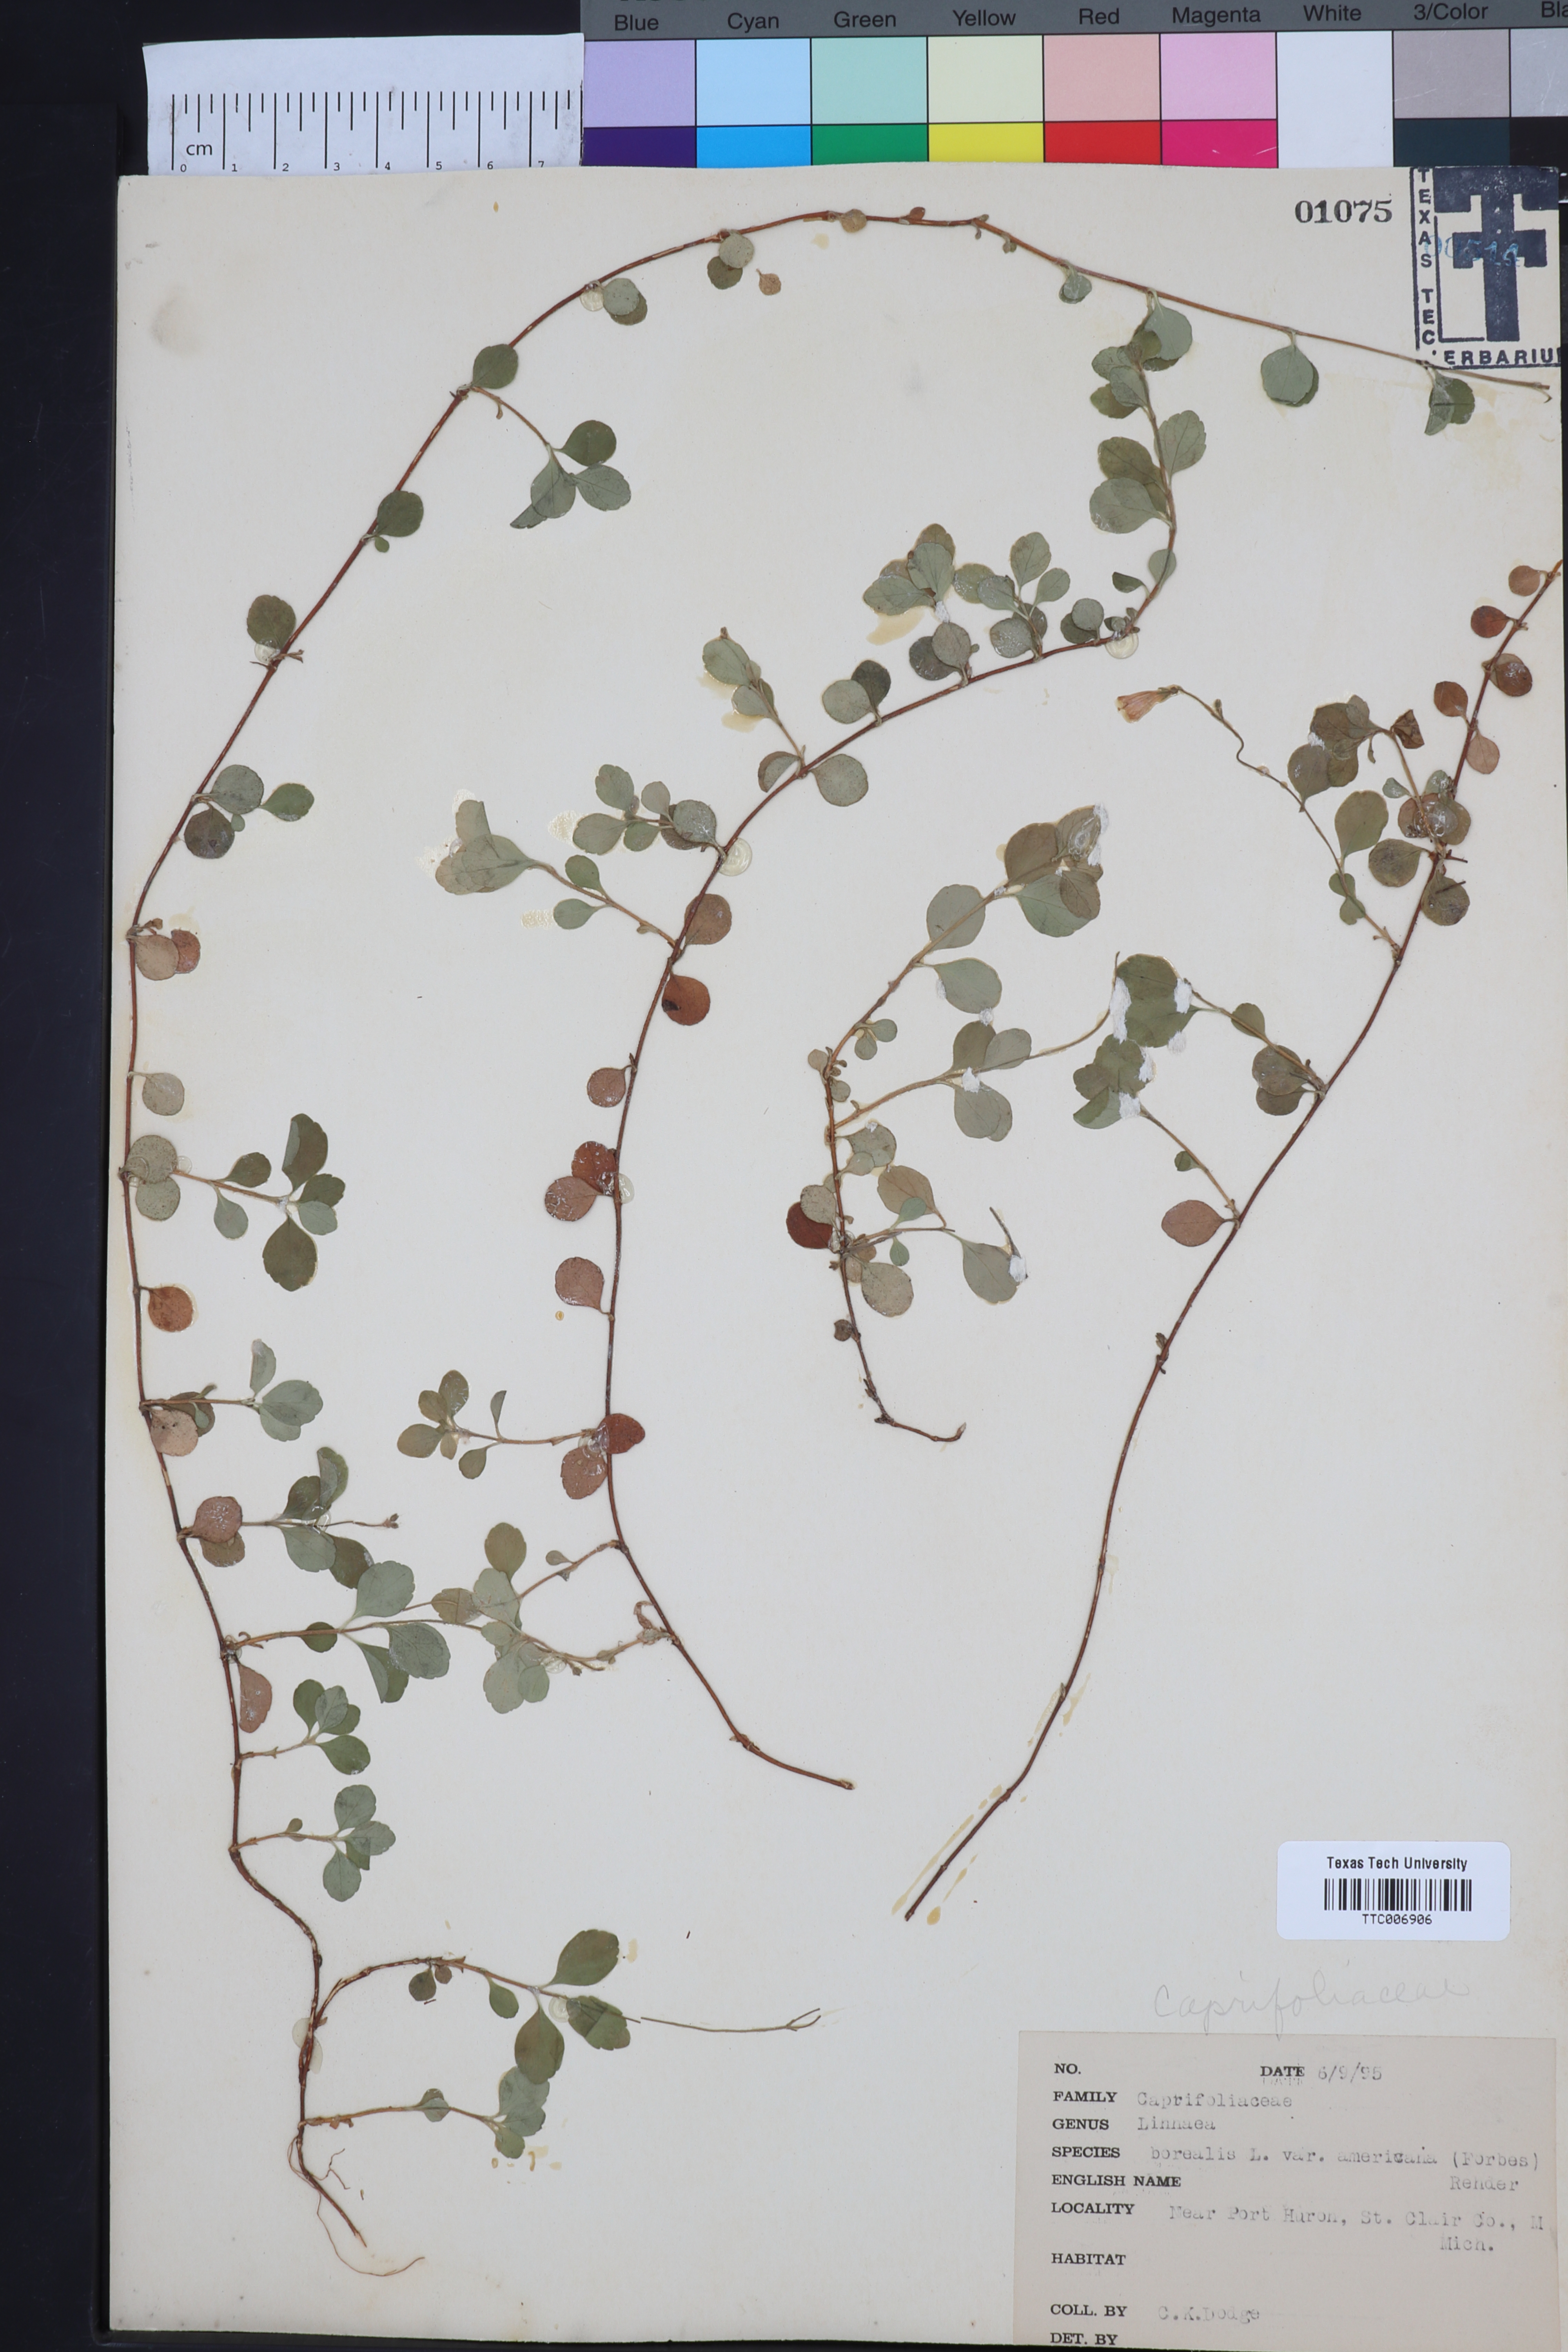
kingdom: Plantae
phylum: Tracheophyta
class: Magnoliopsida
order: Dipsacales
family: Caprifoliaceae
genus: Linnaea
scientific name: Linnaea borealis
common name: Twinflower
